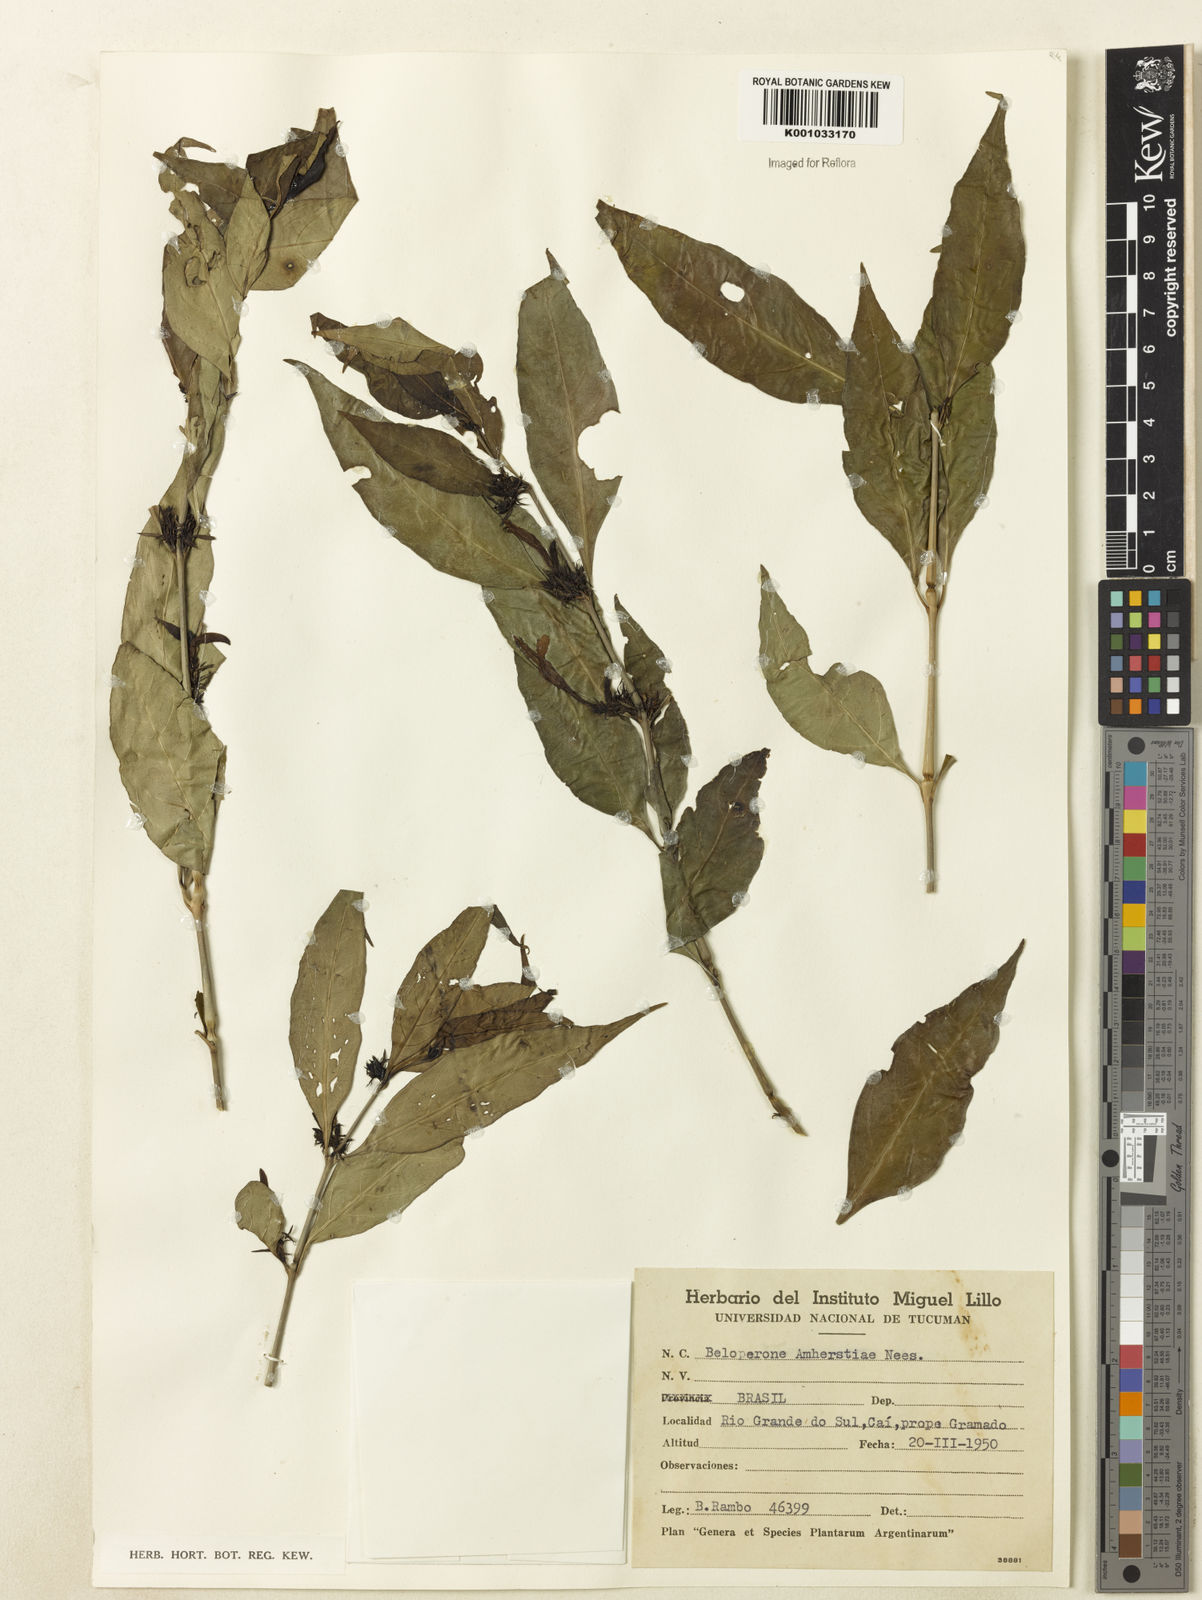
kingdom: Plantae
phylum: Tracheophyta
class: Magnoliopsida
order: Lamiales
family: Acanthaceae
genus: Justicia
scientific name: Justicia brasiliana
